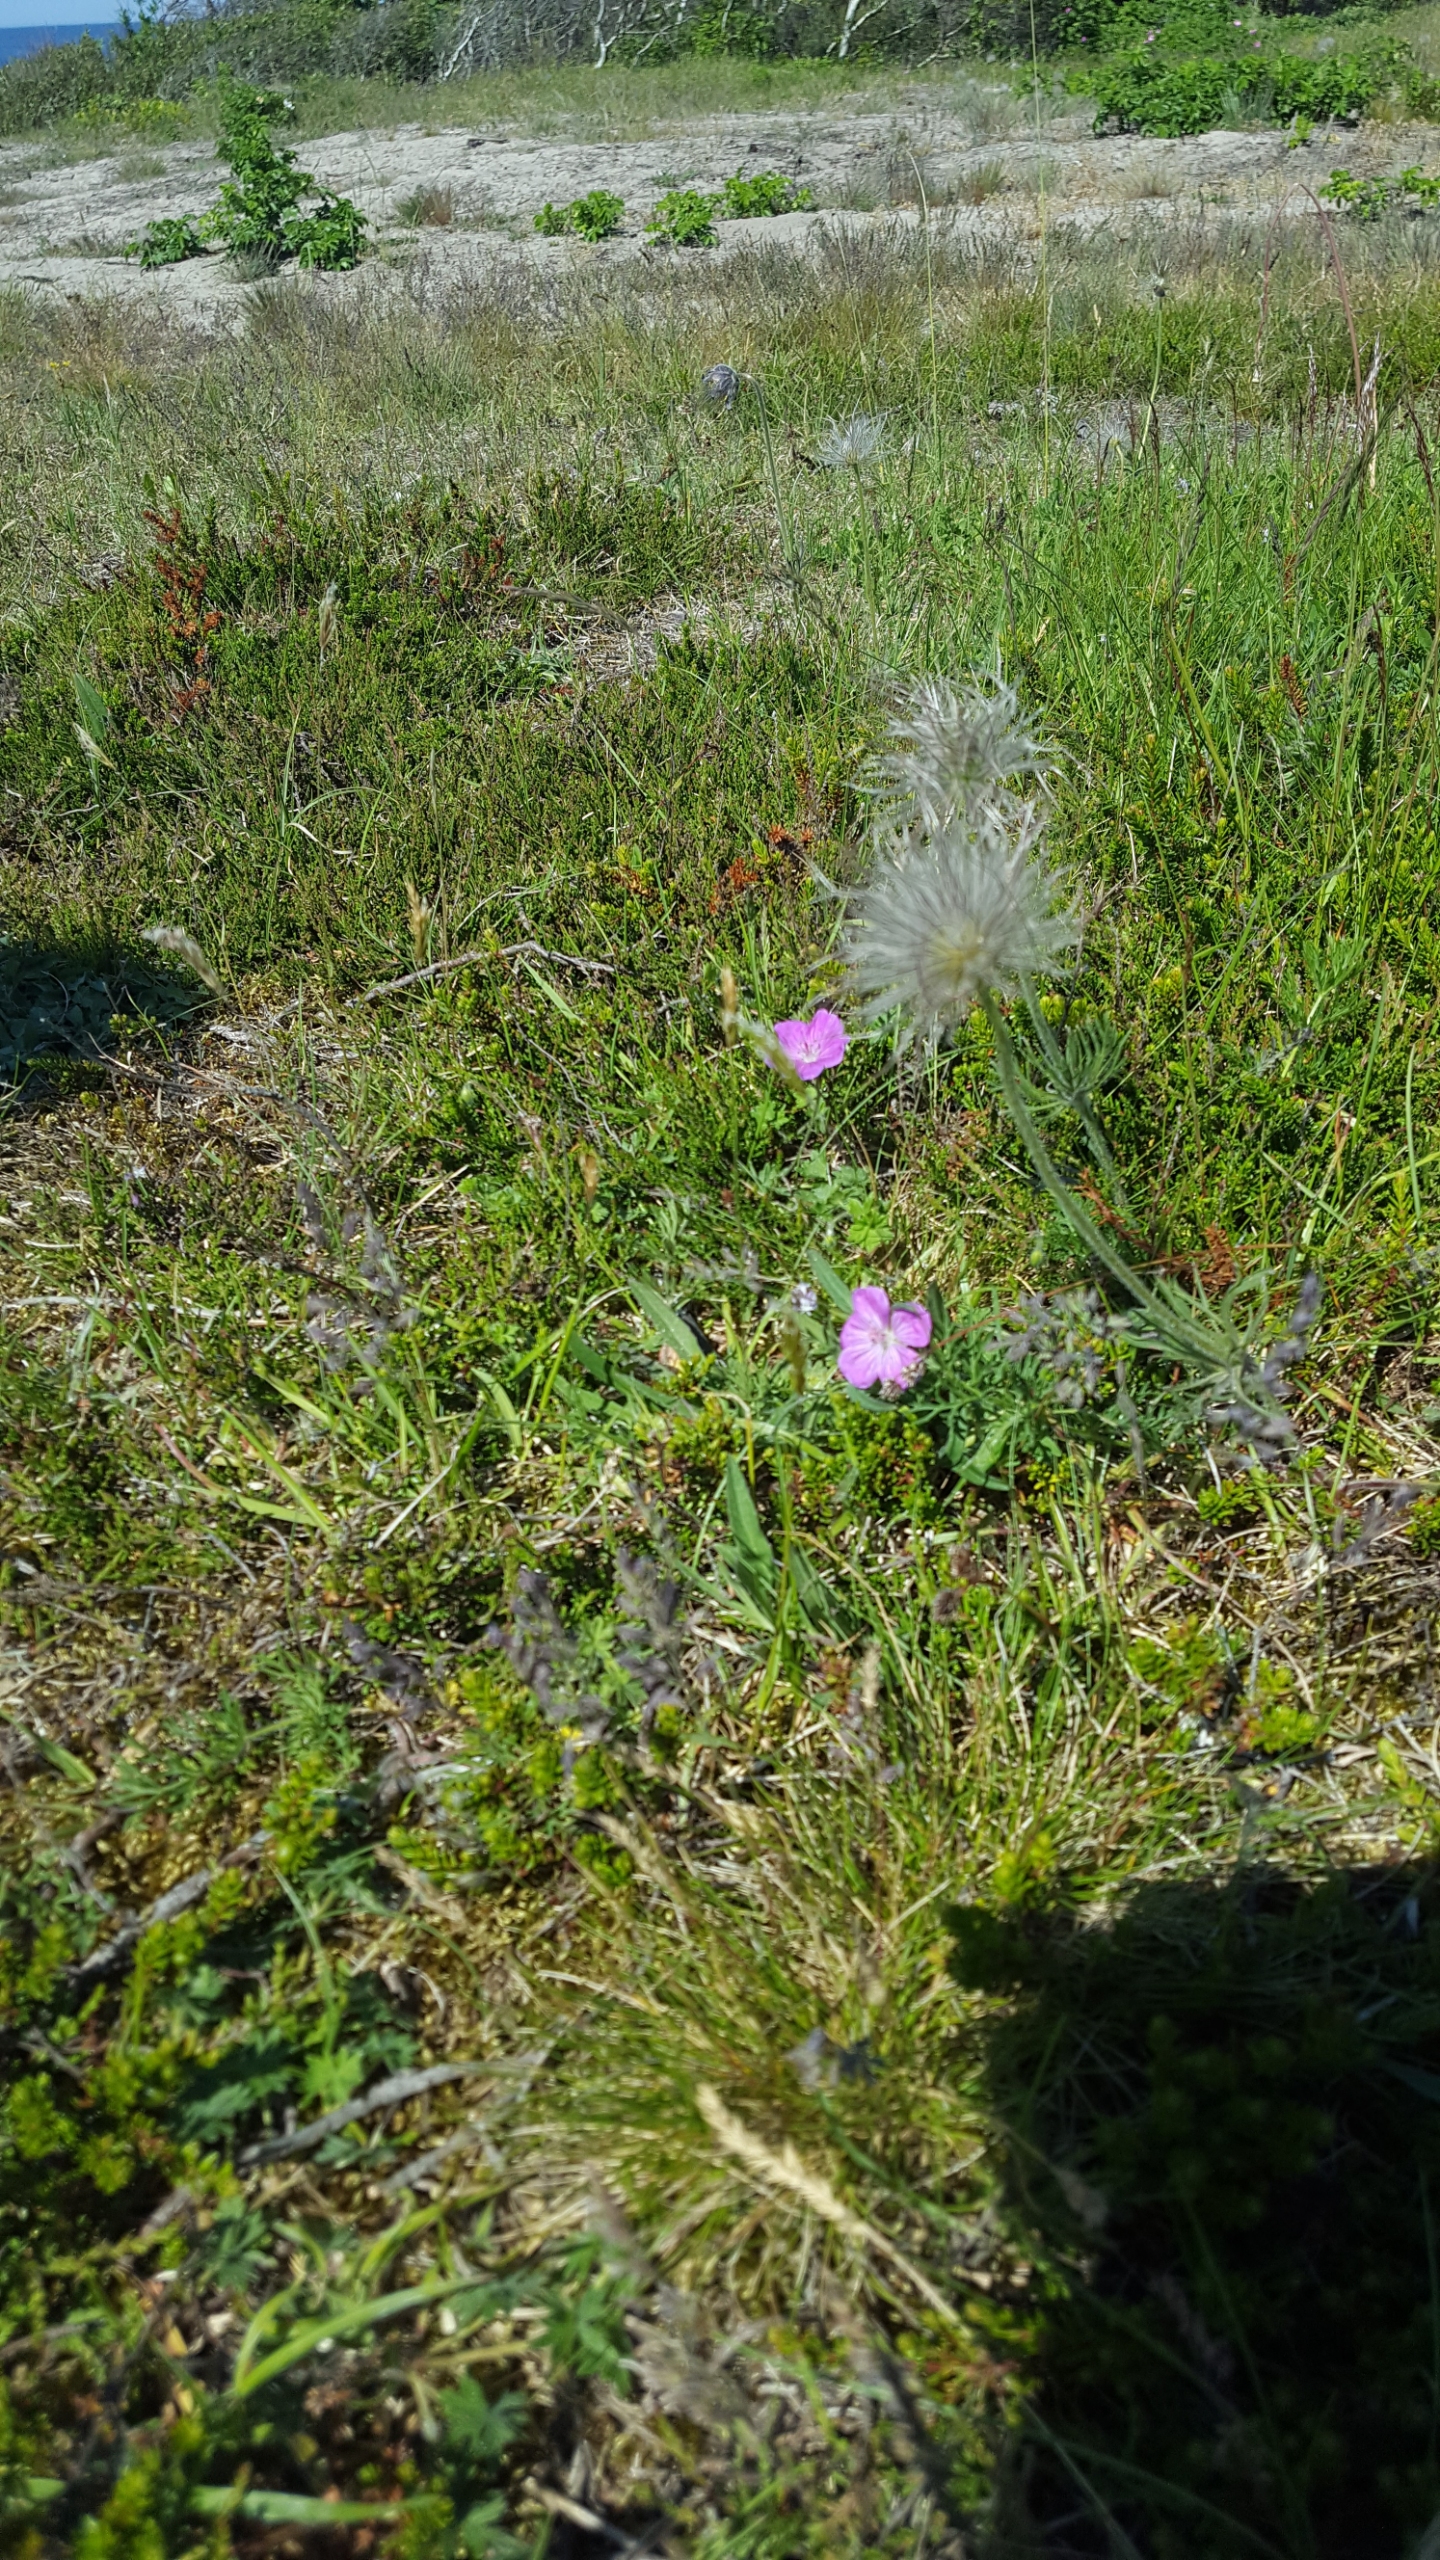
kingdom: Plantae
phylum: Tracheophyta
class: Magnoliopsida
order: Geraniales
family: Geraniaceae
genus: Geranium
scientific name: Geranium sanguineum
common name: Blodrød storkenæb
